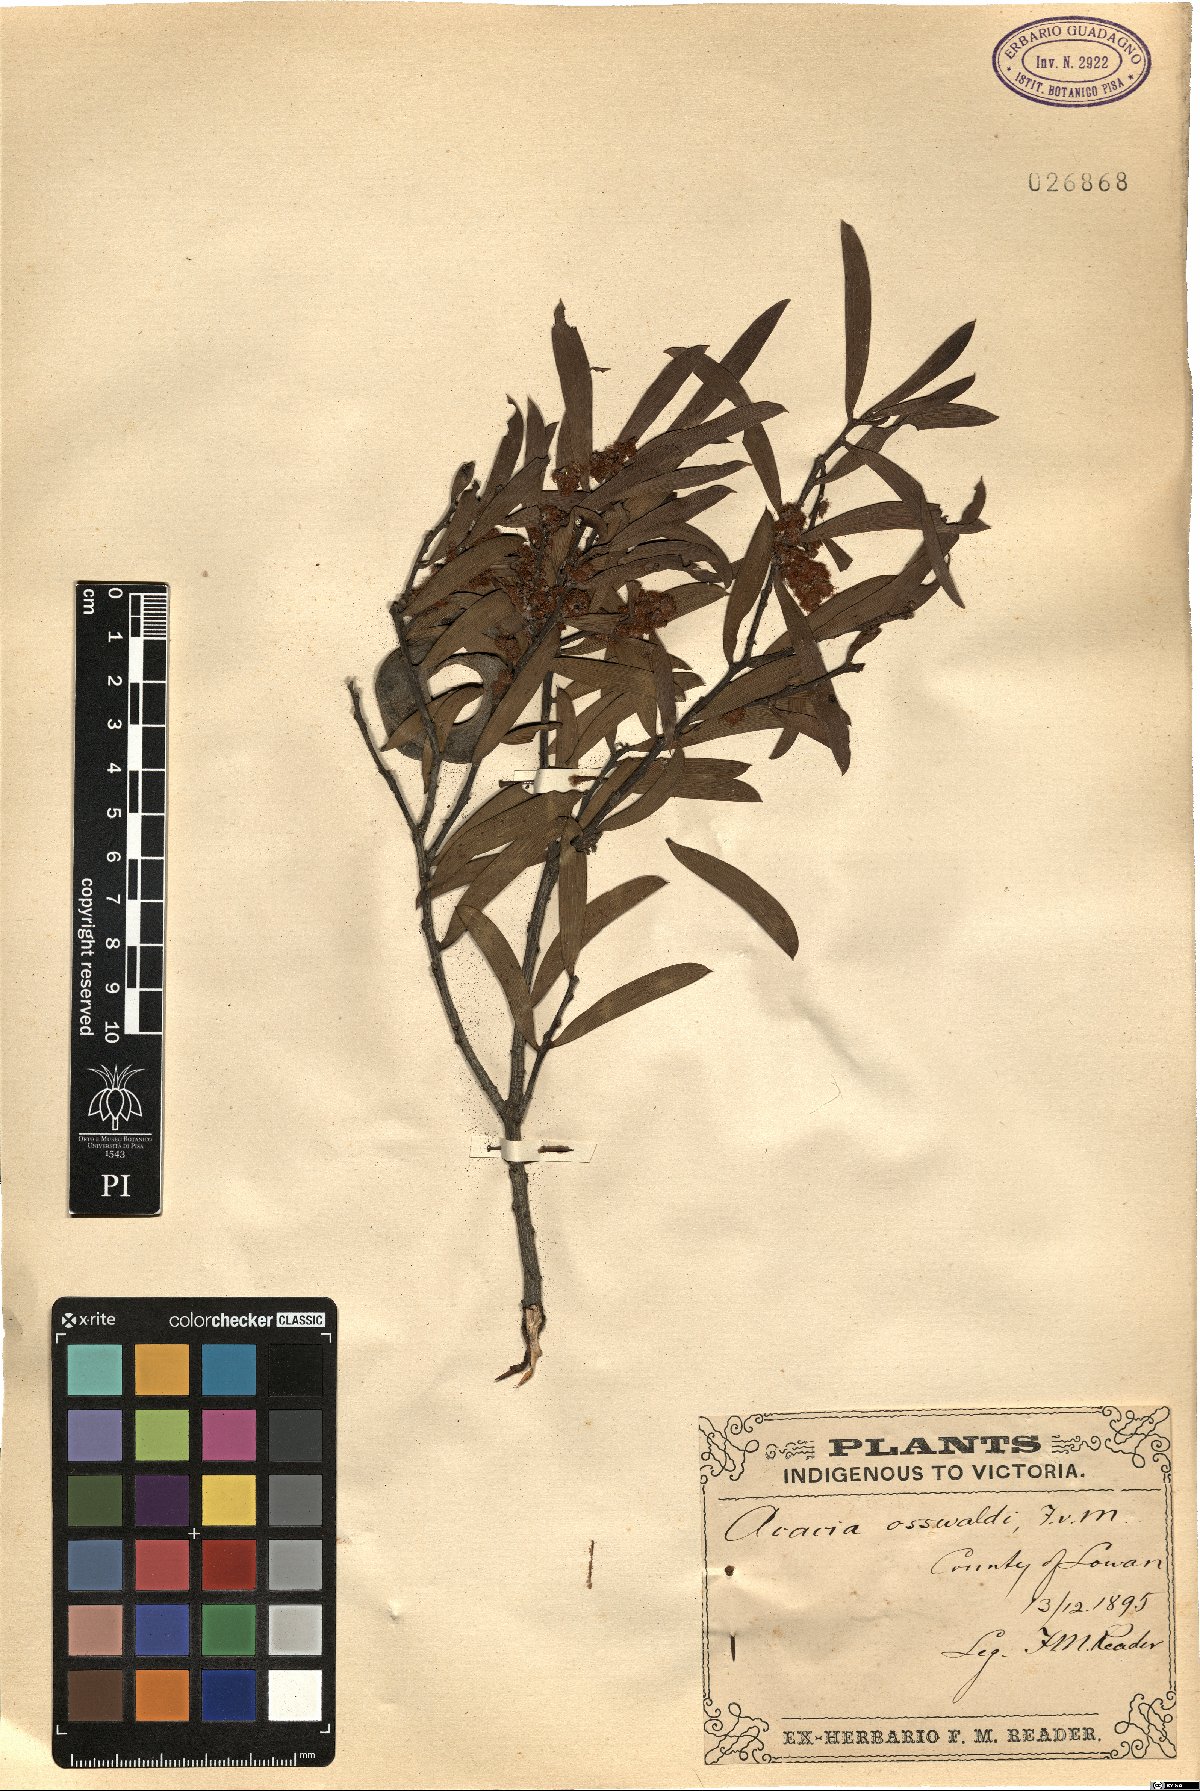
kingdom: Plantae
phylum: Tracheophyta
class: Magnoliopsida
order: Fabales
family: Fabaceae
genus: Acacia
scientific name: Acacia oswaldii
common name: Umbrella wattle
